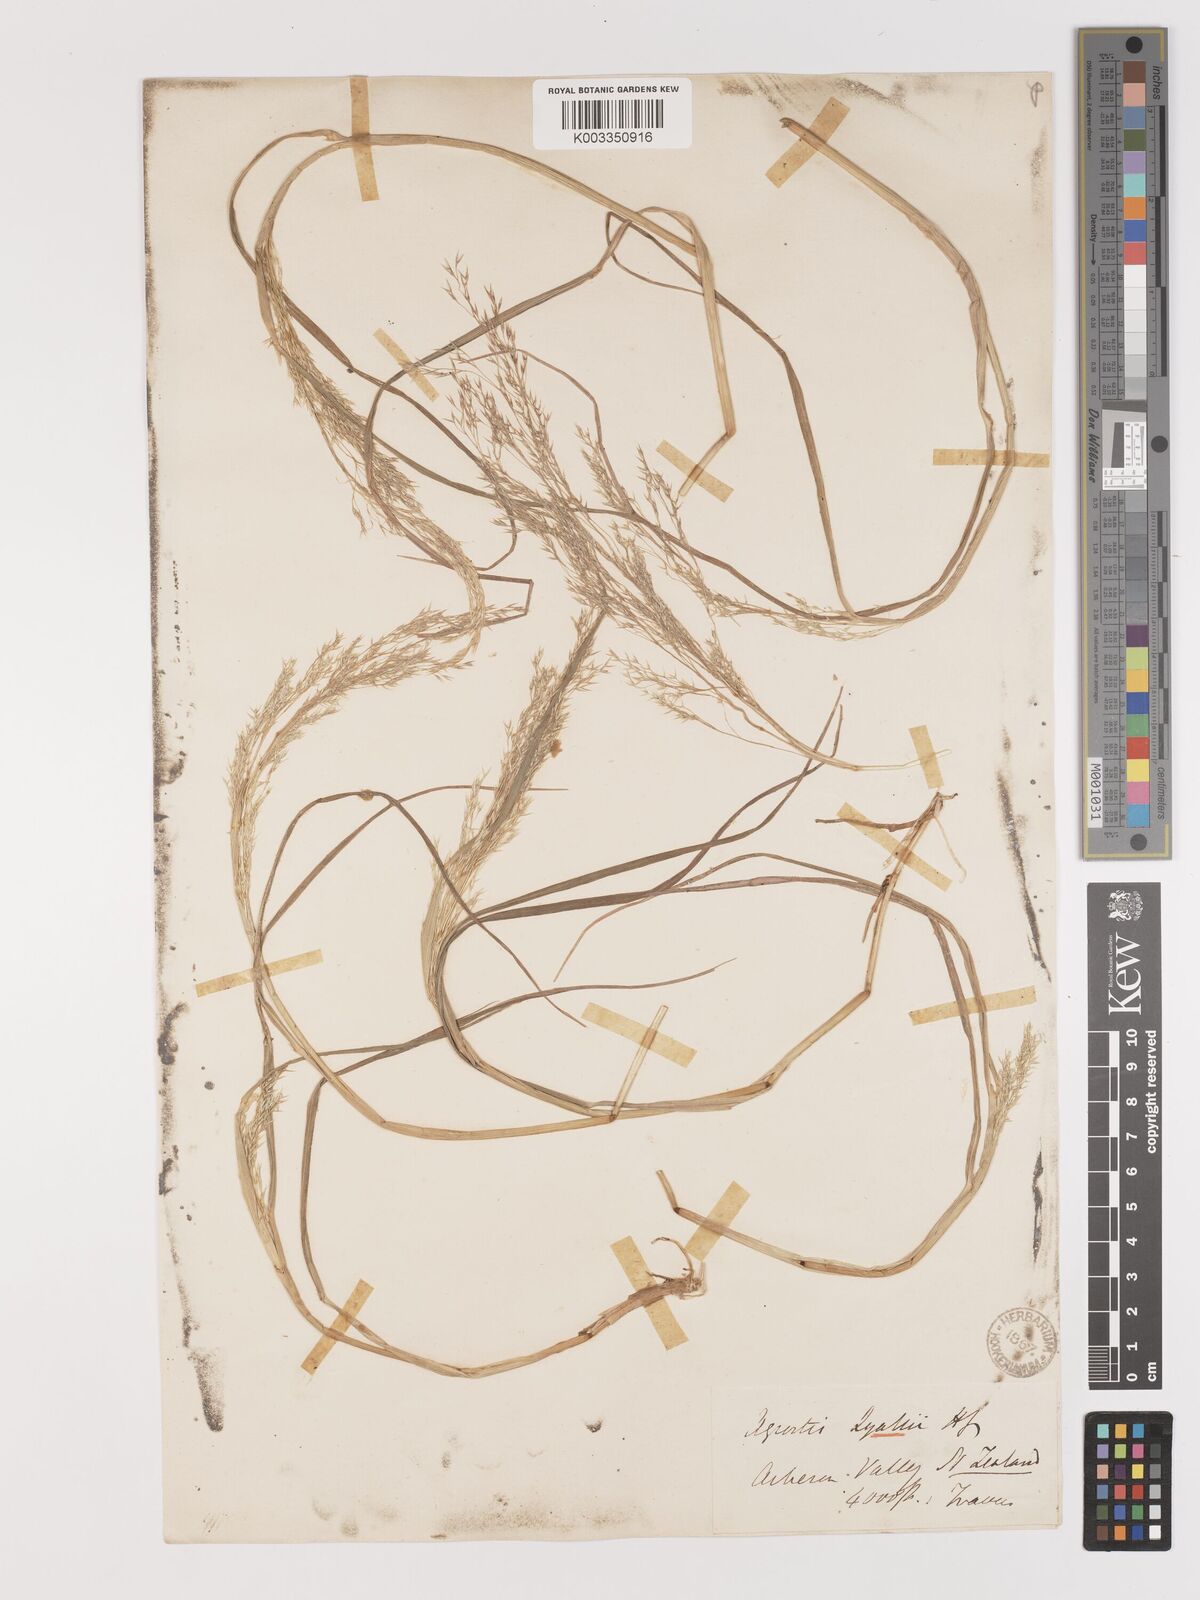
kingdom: Plantae
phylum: Tracheophyta
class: Liliopsida
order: Poales
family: Poaceae
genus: Lachnagrostis
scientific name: Lachnagrostis lyallii
